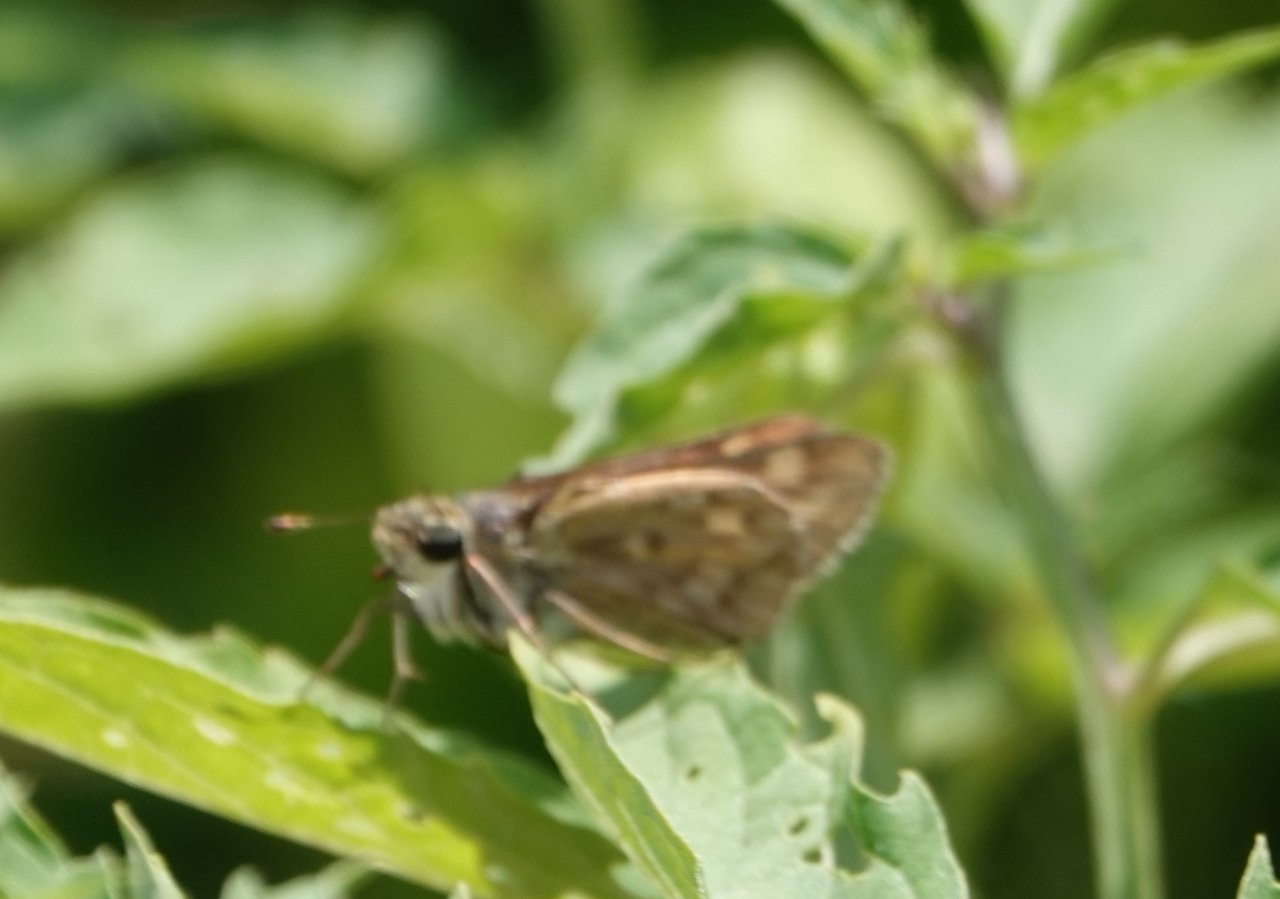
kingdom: Animalia
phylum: Arthropoda
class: Insecta
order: Lepidoptera
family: Hesperiidae
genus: Atalopedes
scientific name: Atalopedes campestris
